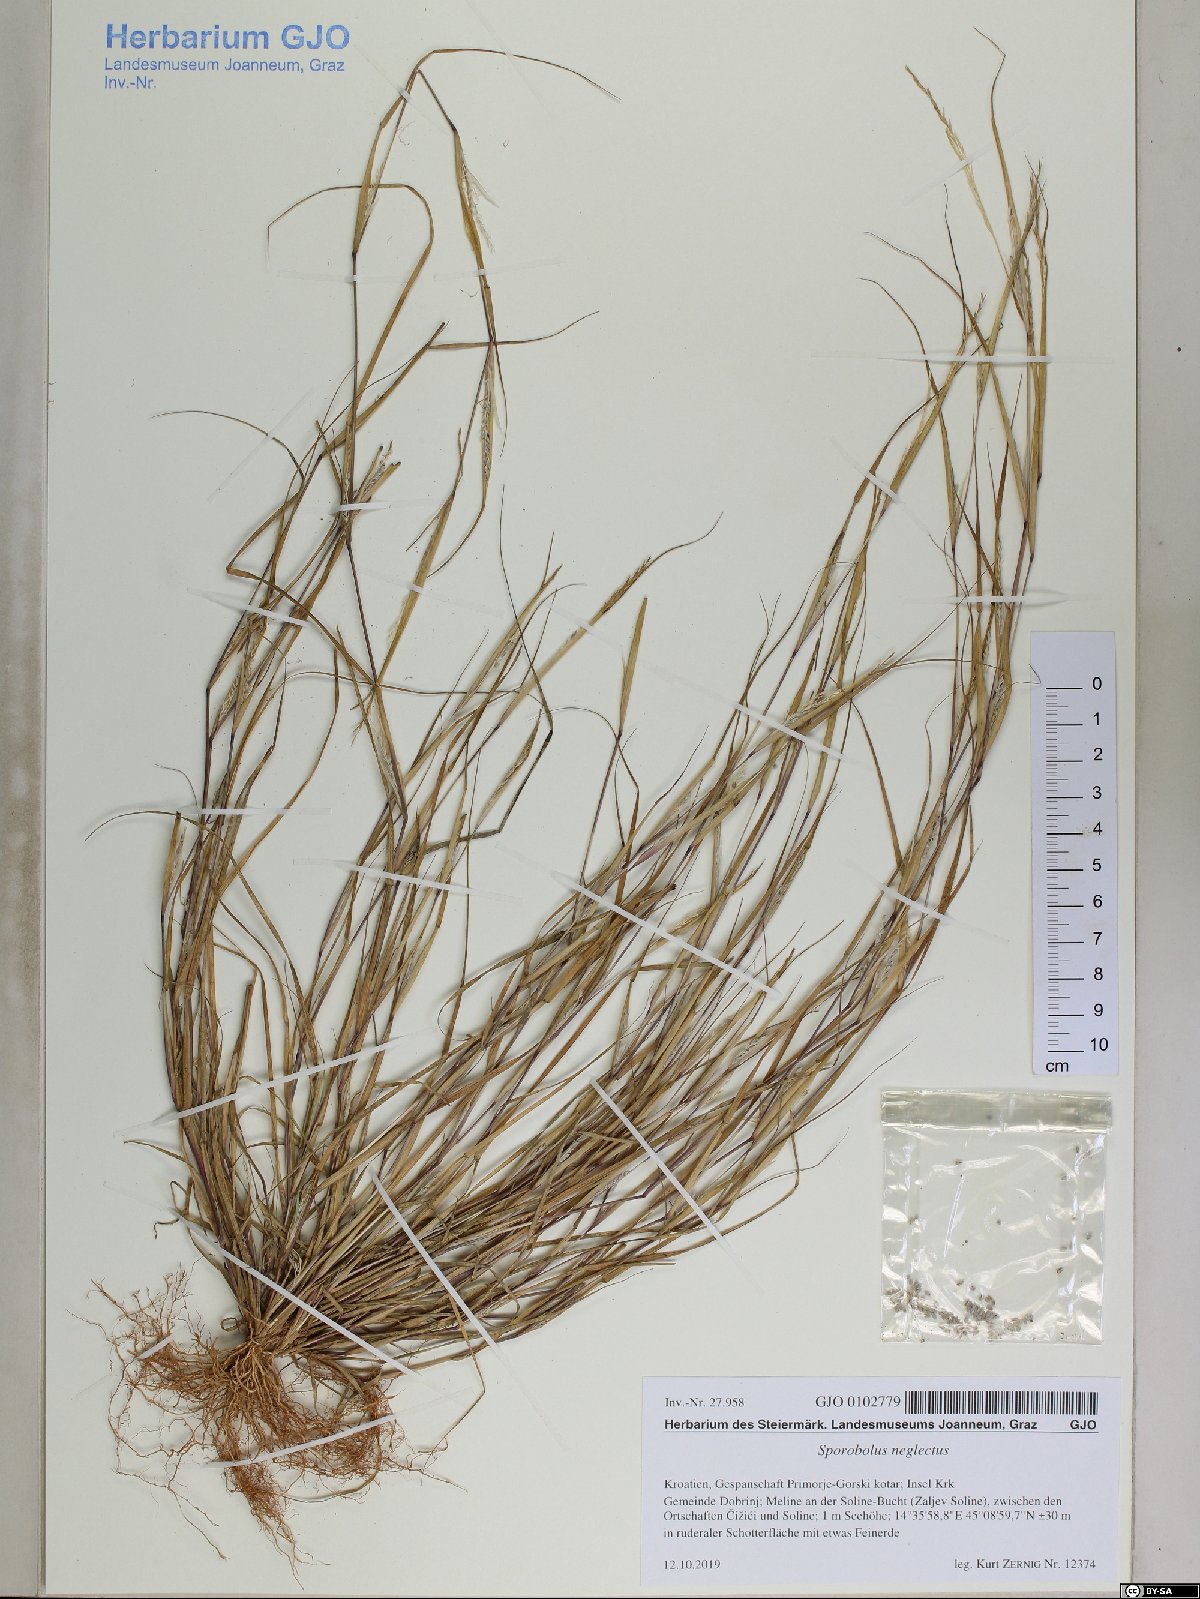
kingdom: Plantae
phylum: Tracheophyta
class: Liliopsida
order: Poales
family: Poaceae
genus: Sporobolus
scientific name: Sporobolus neglectus
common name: Annual dropseed
